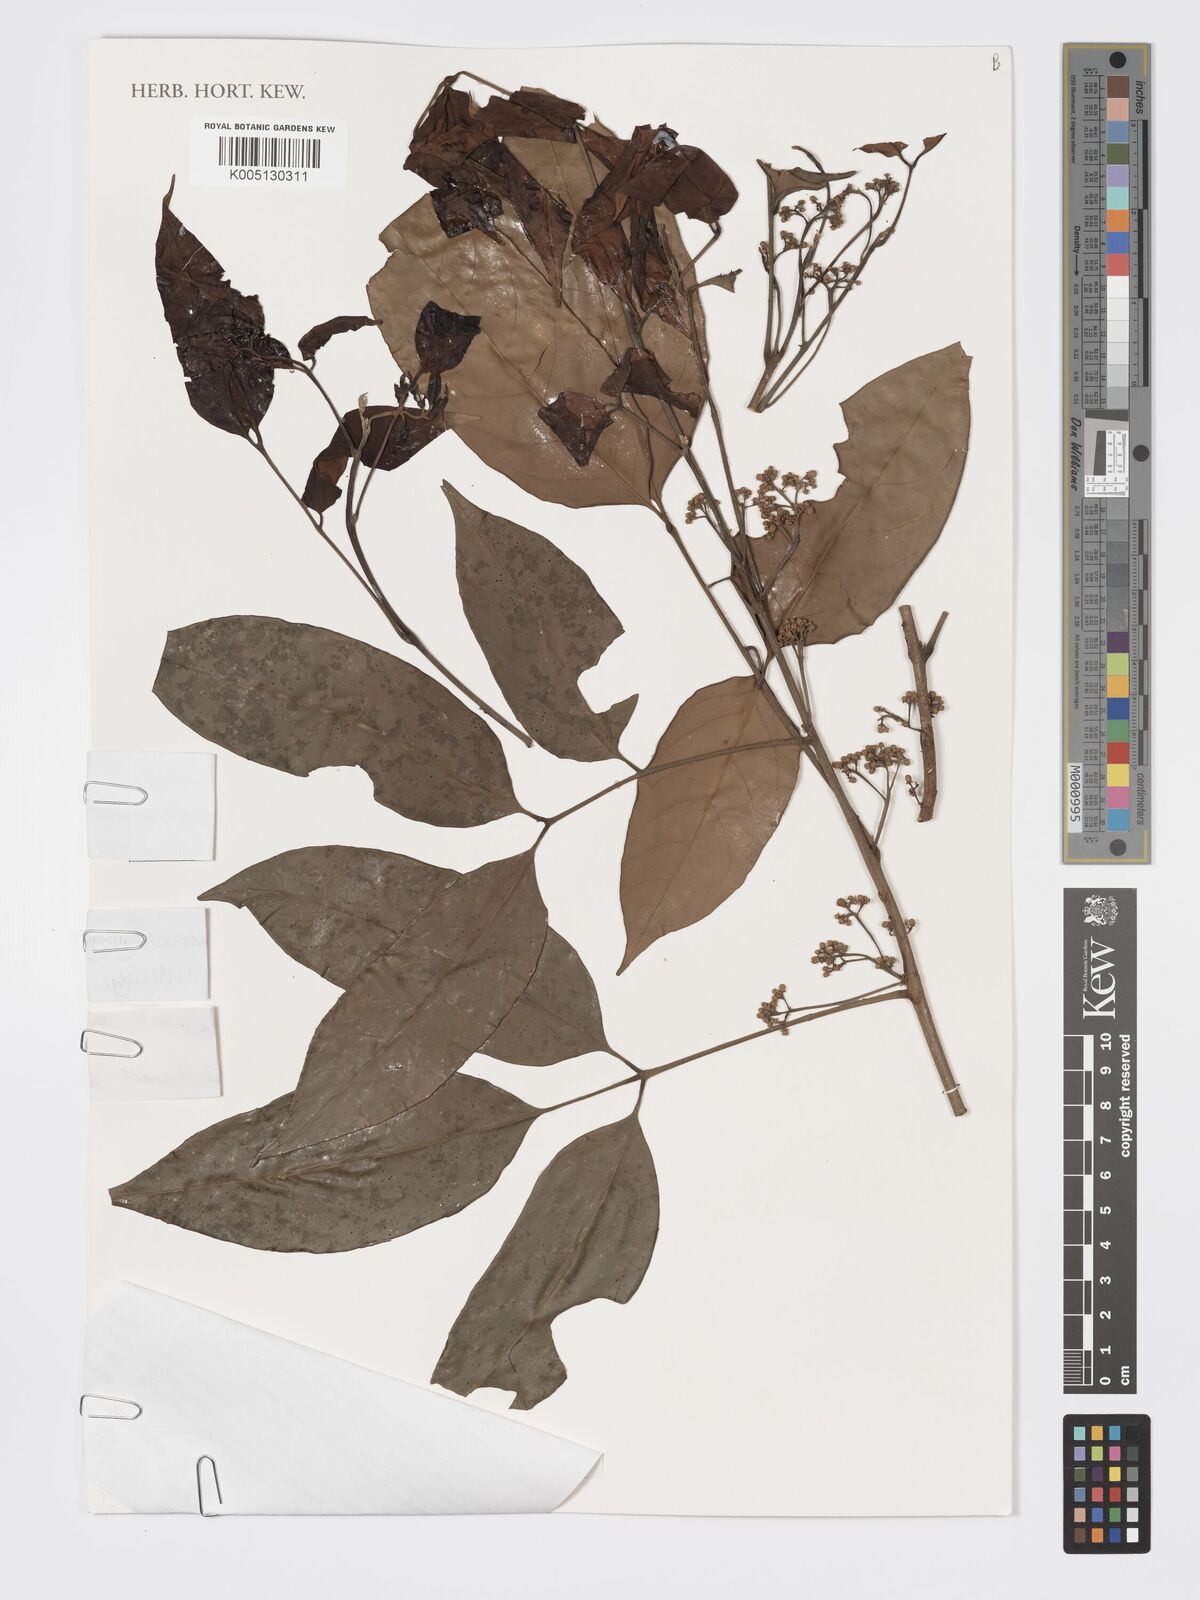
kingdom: Plantae
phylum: Tracheophyta
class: Magnoliopsida
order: Sapindales
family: Meliaceae
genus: Pseudoclausena
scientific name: Pseudoclausena chrysogyne
